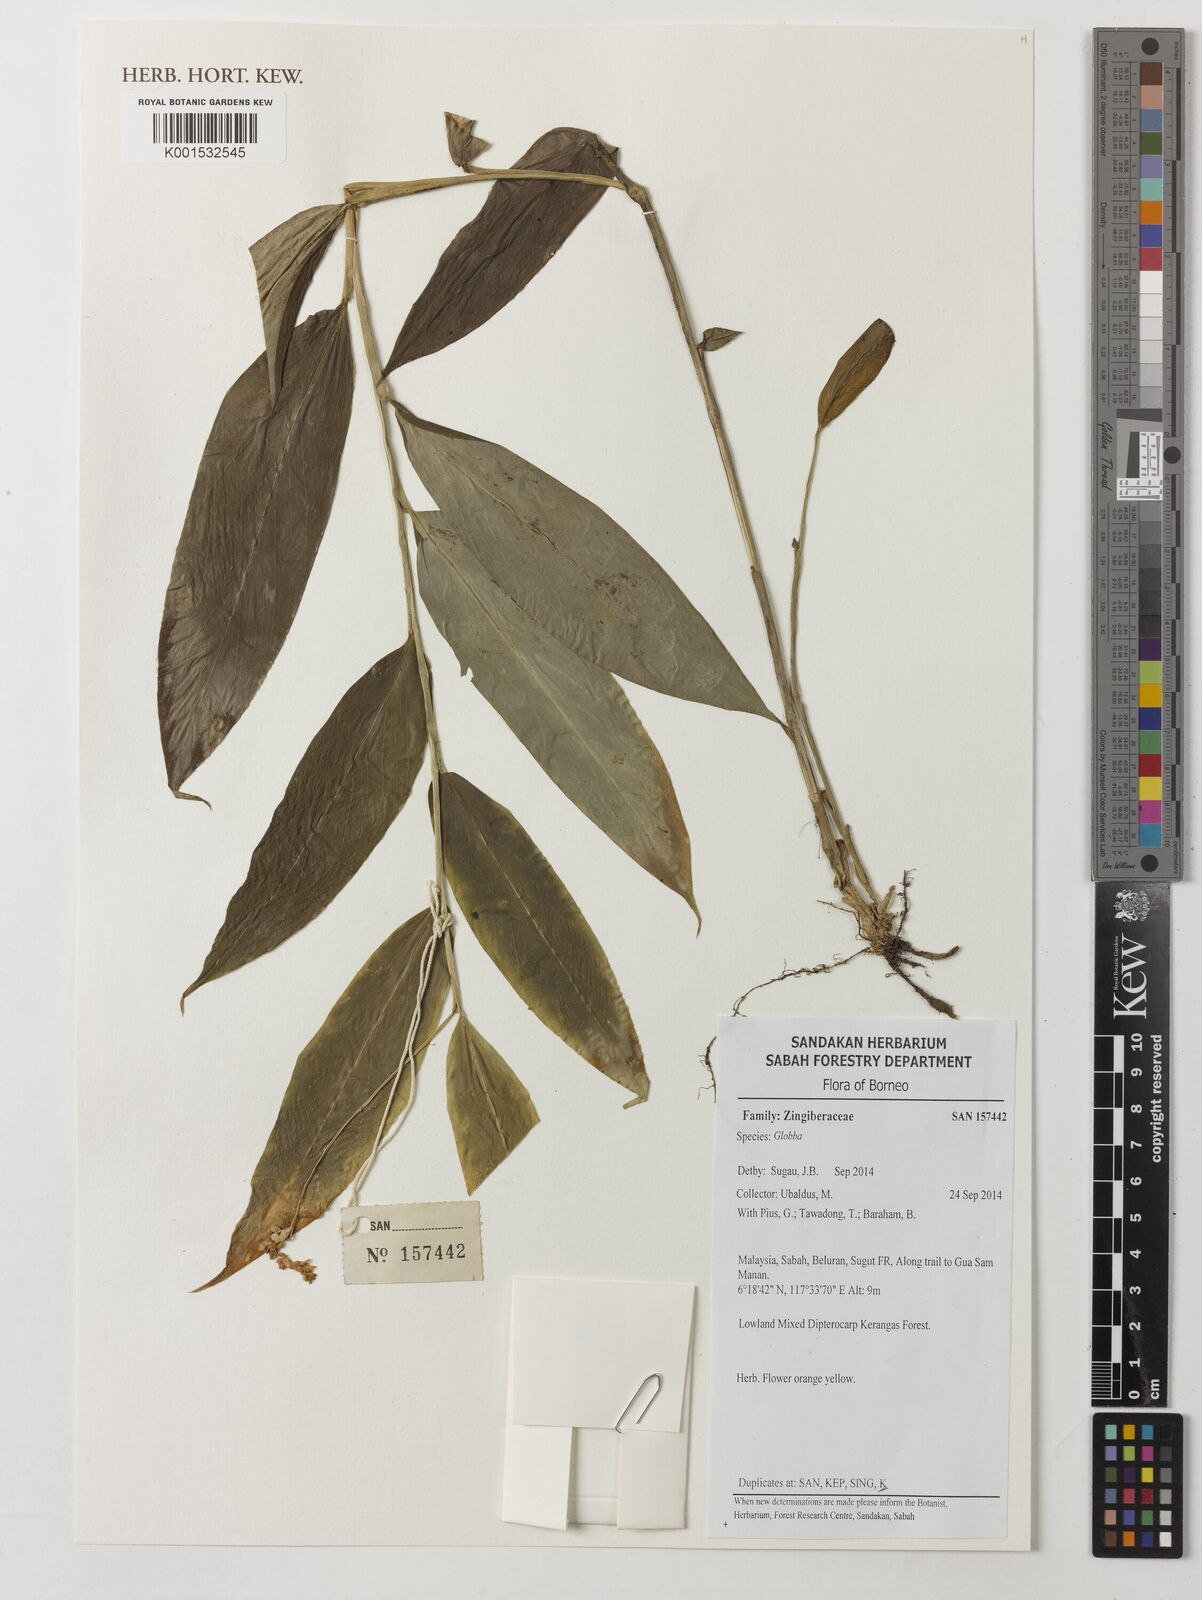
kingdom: Plantae
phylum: Tracheophyta
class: Liliopsida
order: Zingiberales
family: Zingiberaceae
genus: Globba
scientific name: Globba
